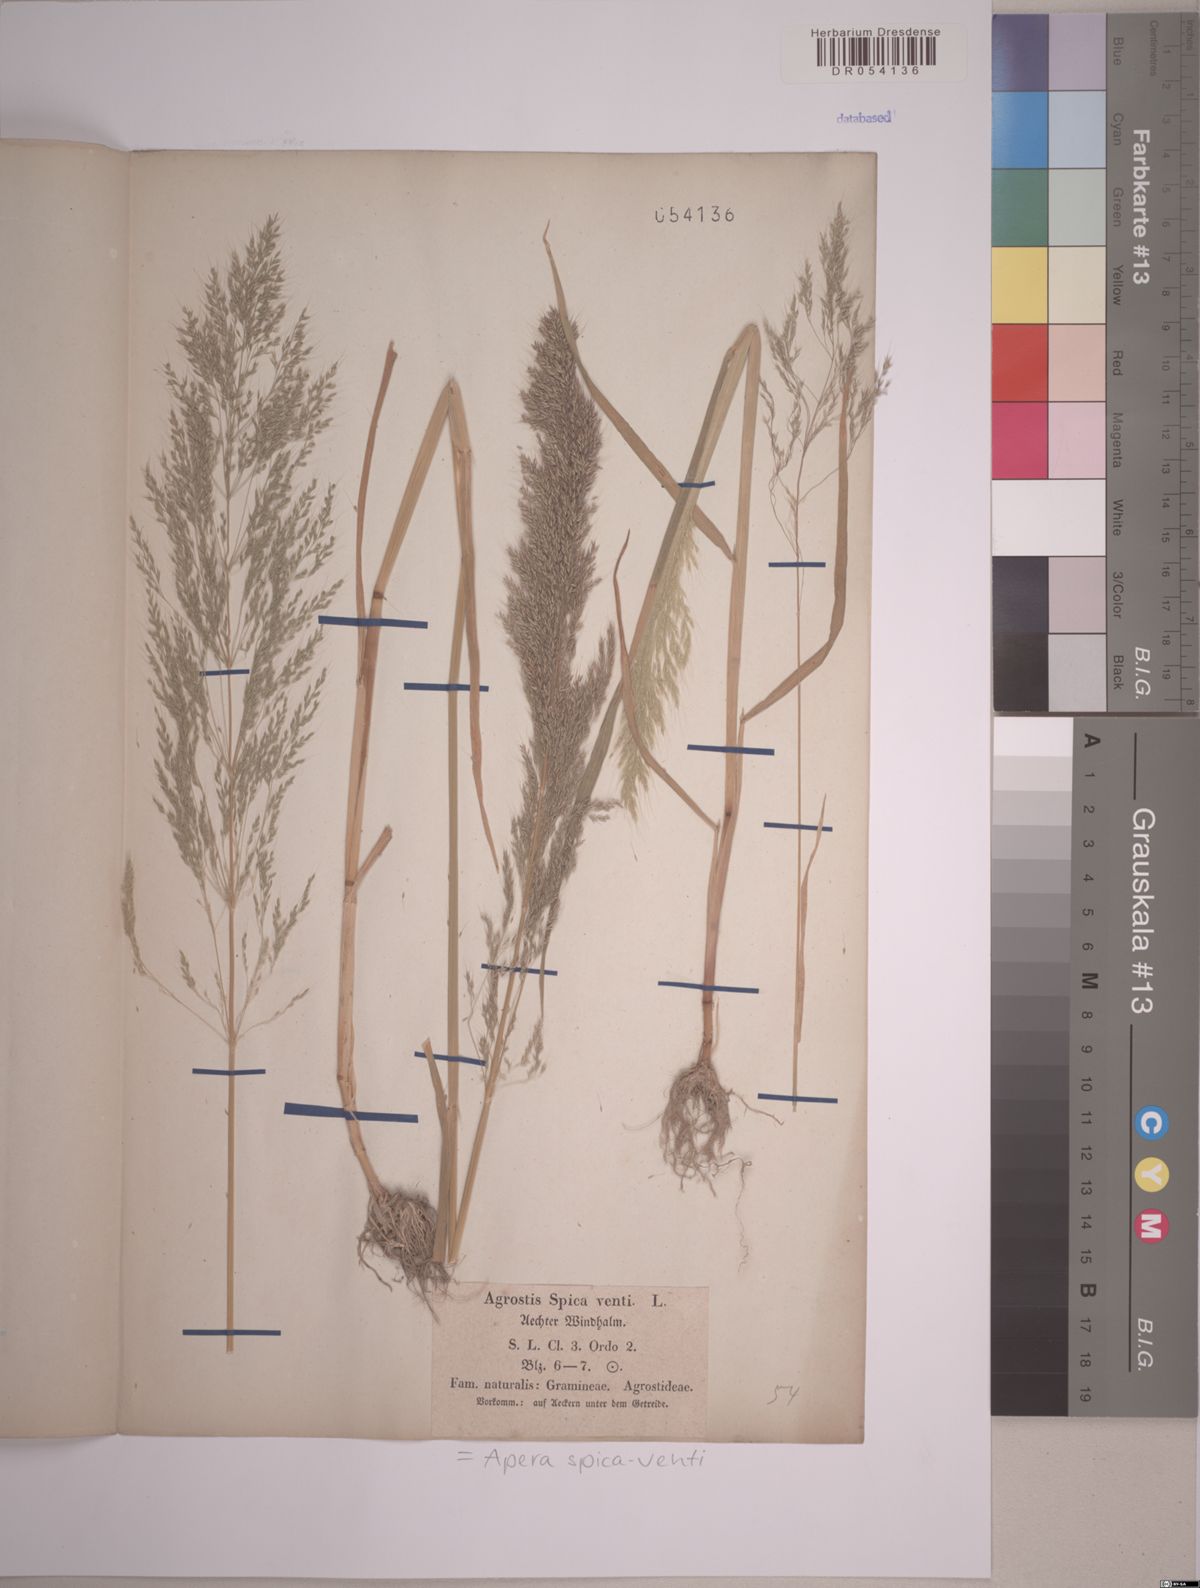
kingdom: Plantae
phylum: Tracheophyta
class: Liliopsida
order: Poales
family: Poaceae
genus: Apera
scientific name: Apera spica-venti
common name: Loose silky-bent
